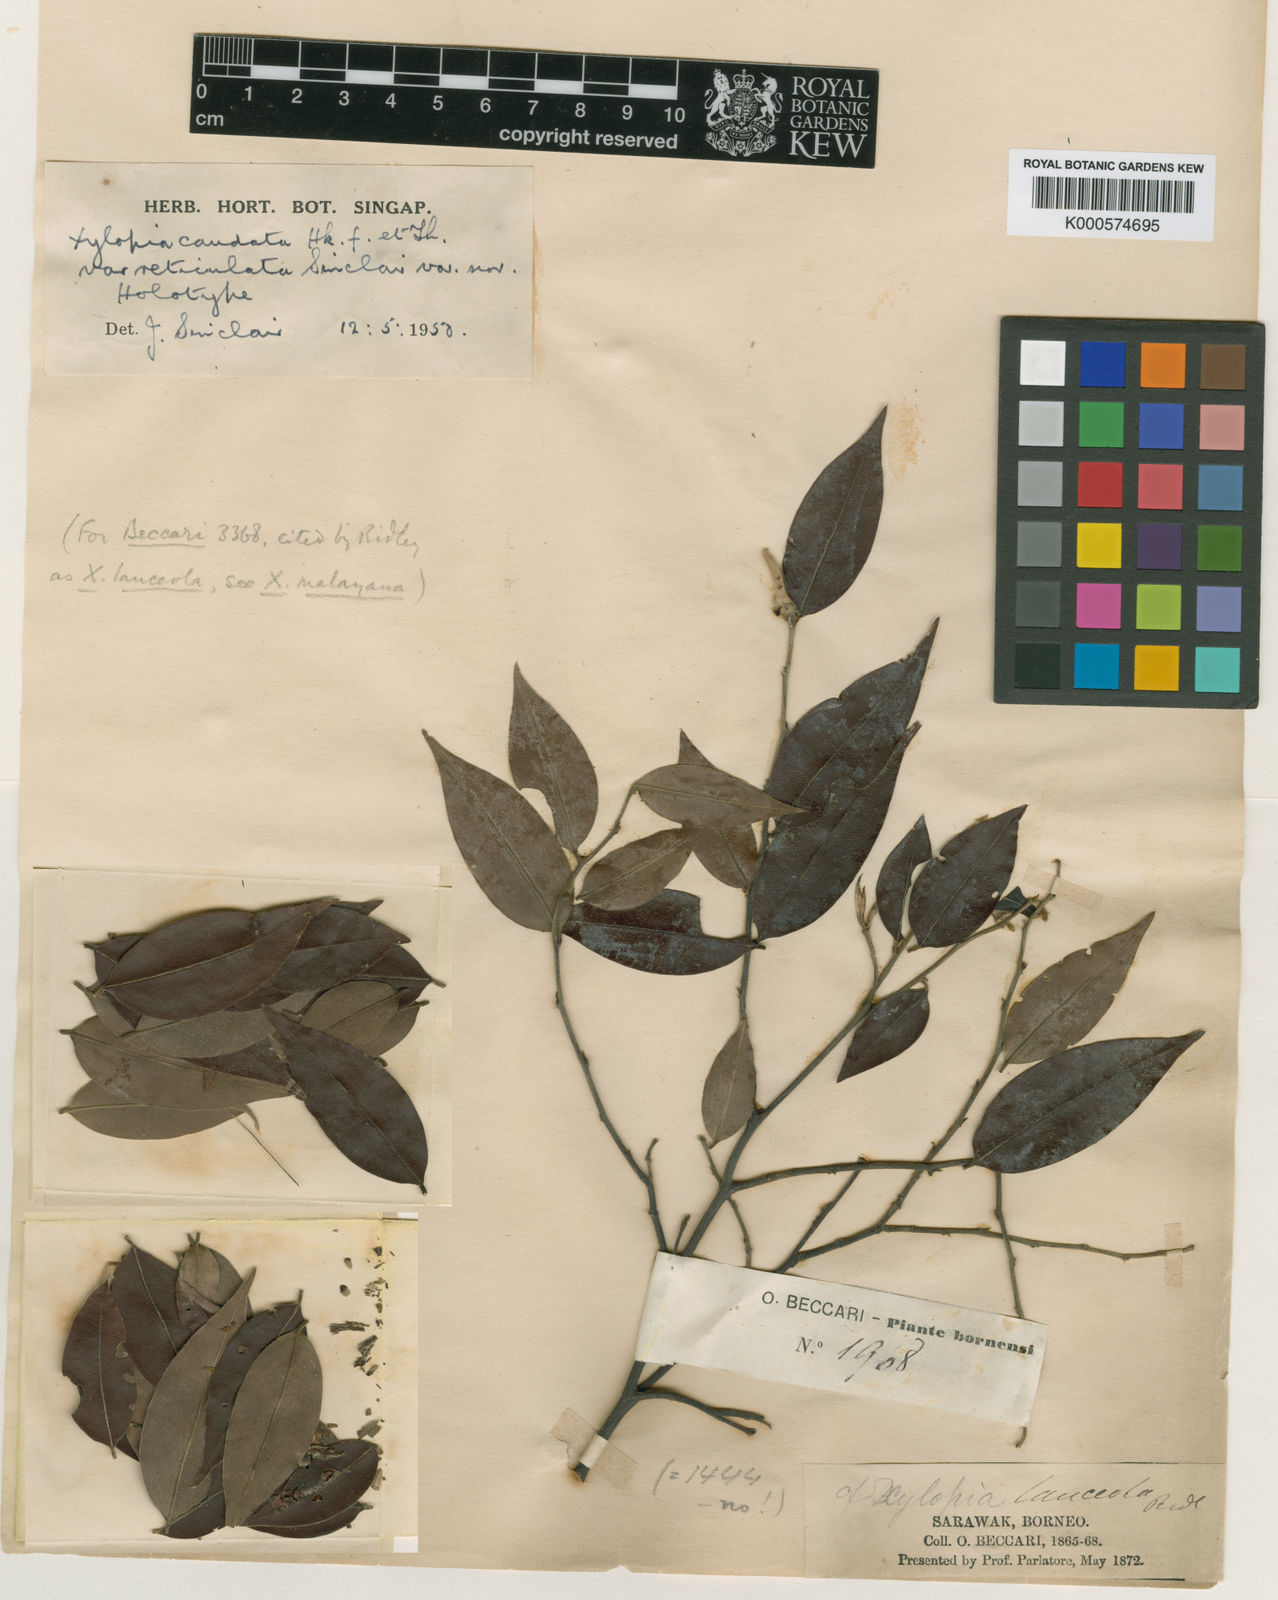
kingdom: Plantae
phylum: Tracheophyta
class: Magnoliopsida
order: Magnoliales
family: Annonaceae
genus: Xylopia
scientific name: Xylopia caudata
